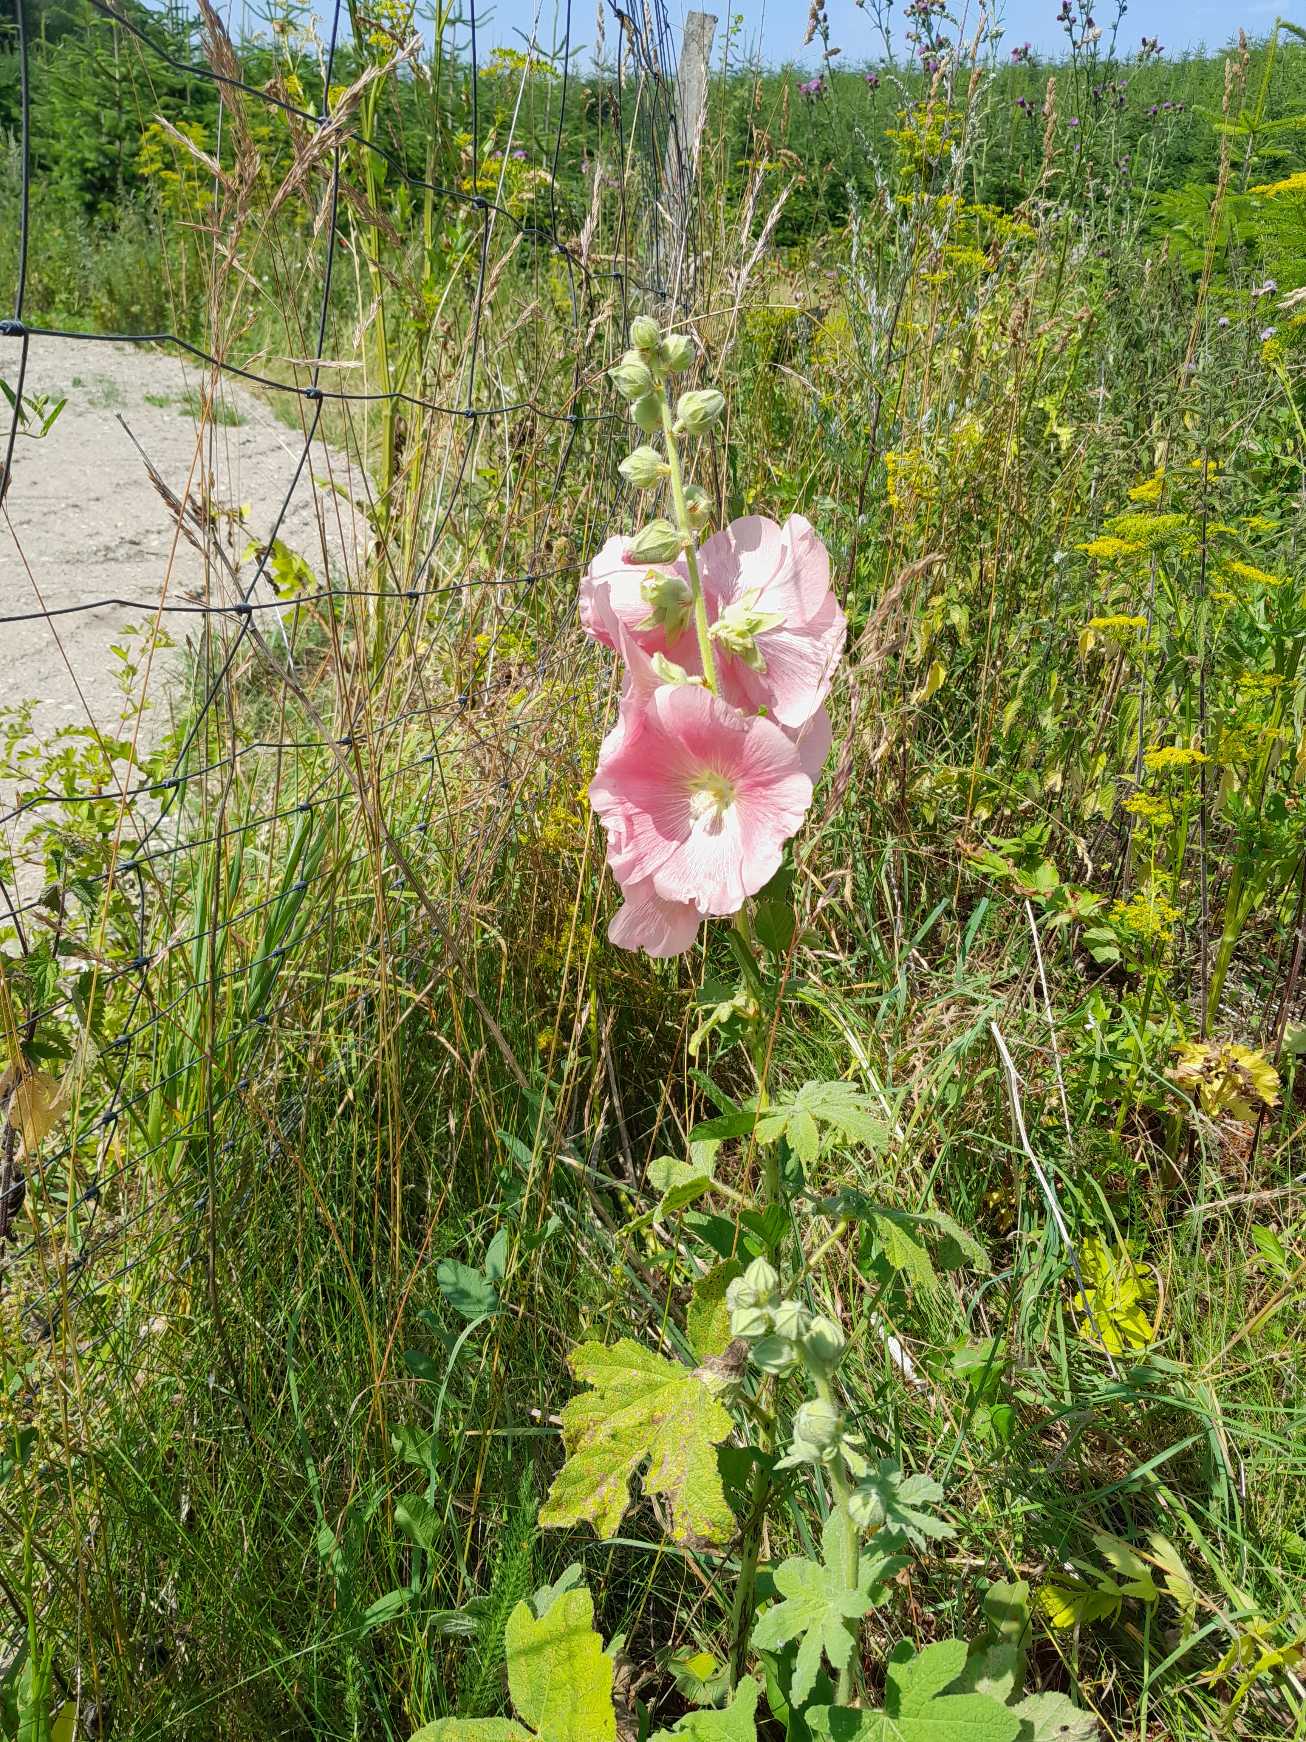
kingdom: Plantae
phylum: Tracheophyta
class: Magnoliopsida
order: Malvales
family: Malvaceae
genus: Alcea
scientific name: Alcea rosea
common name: Have-stokrose
